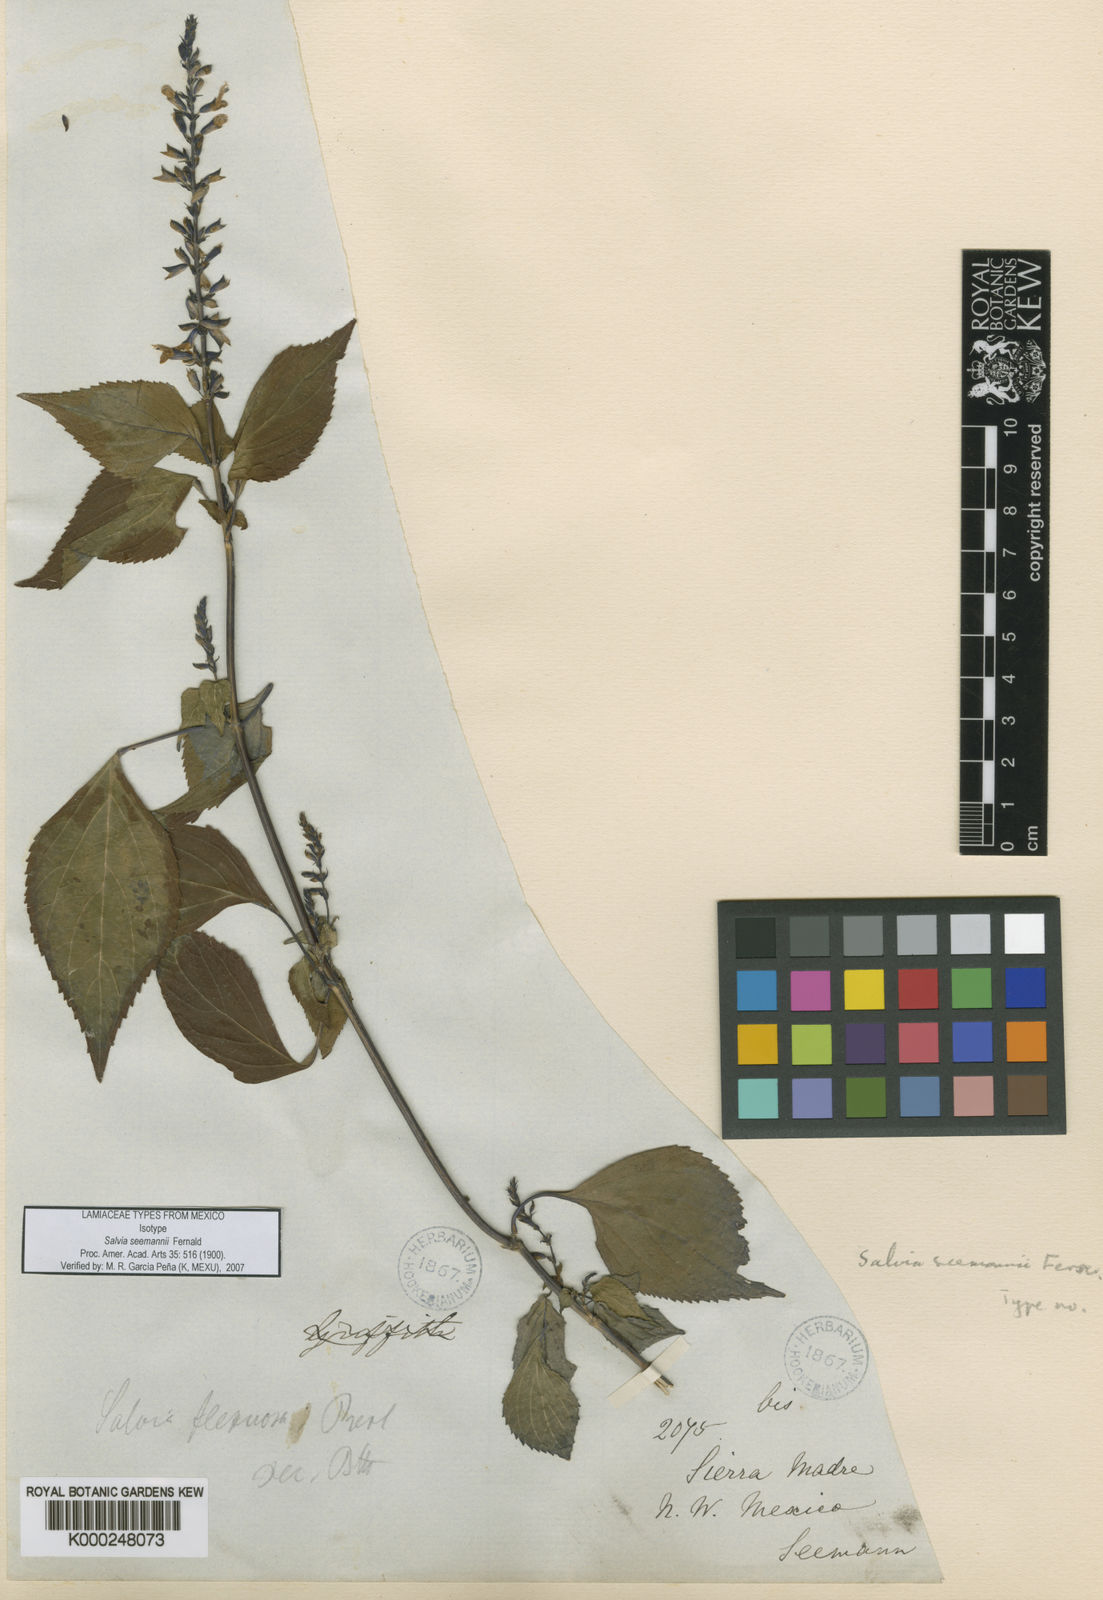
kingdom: Plantae
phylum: Tracheophyta
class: Magnoliopsida
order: Lamiales
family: Lamiaceae
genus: Salvia
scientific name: Salvia seemannii
